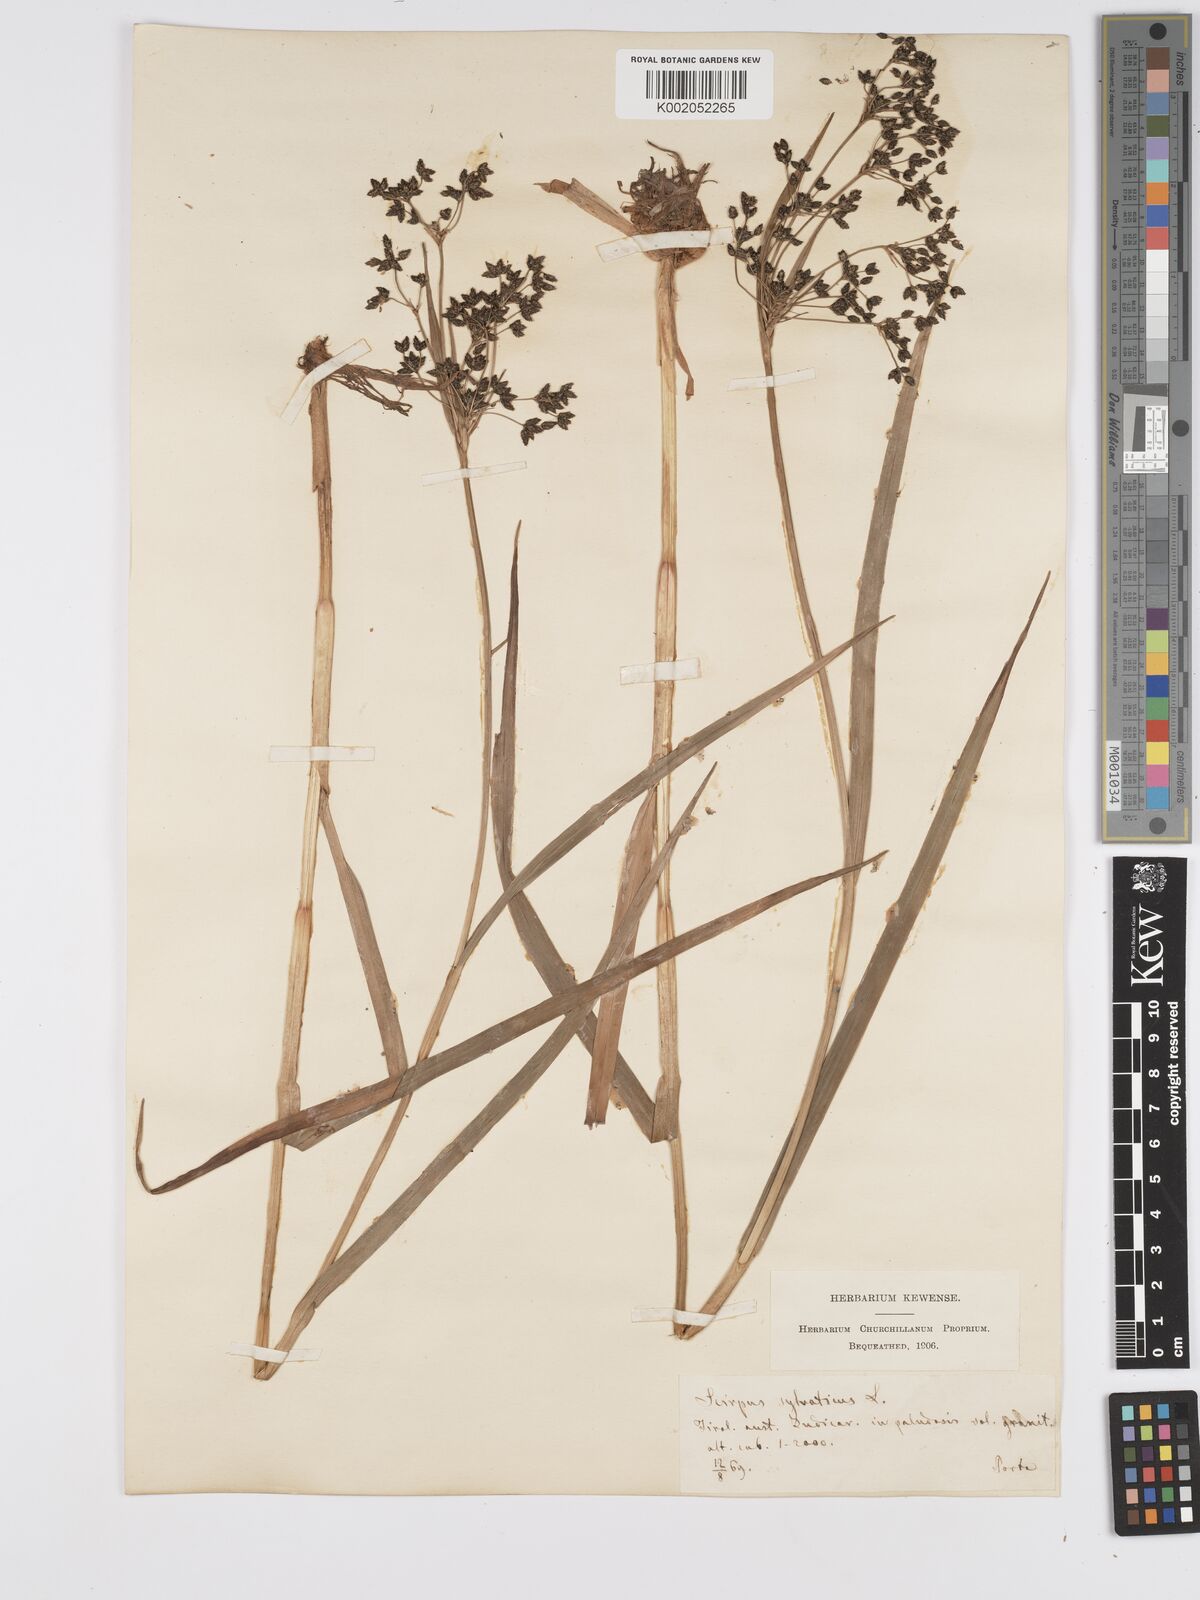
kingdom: Plantae
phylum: Tracheophyta
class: Liliopsida
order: Poales
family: Cyperaceae
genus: Scirpus
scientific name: Scirpus sylvaticus
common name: Wood club-rush
